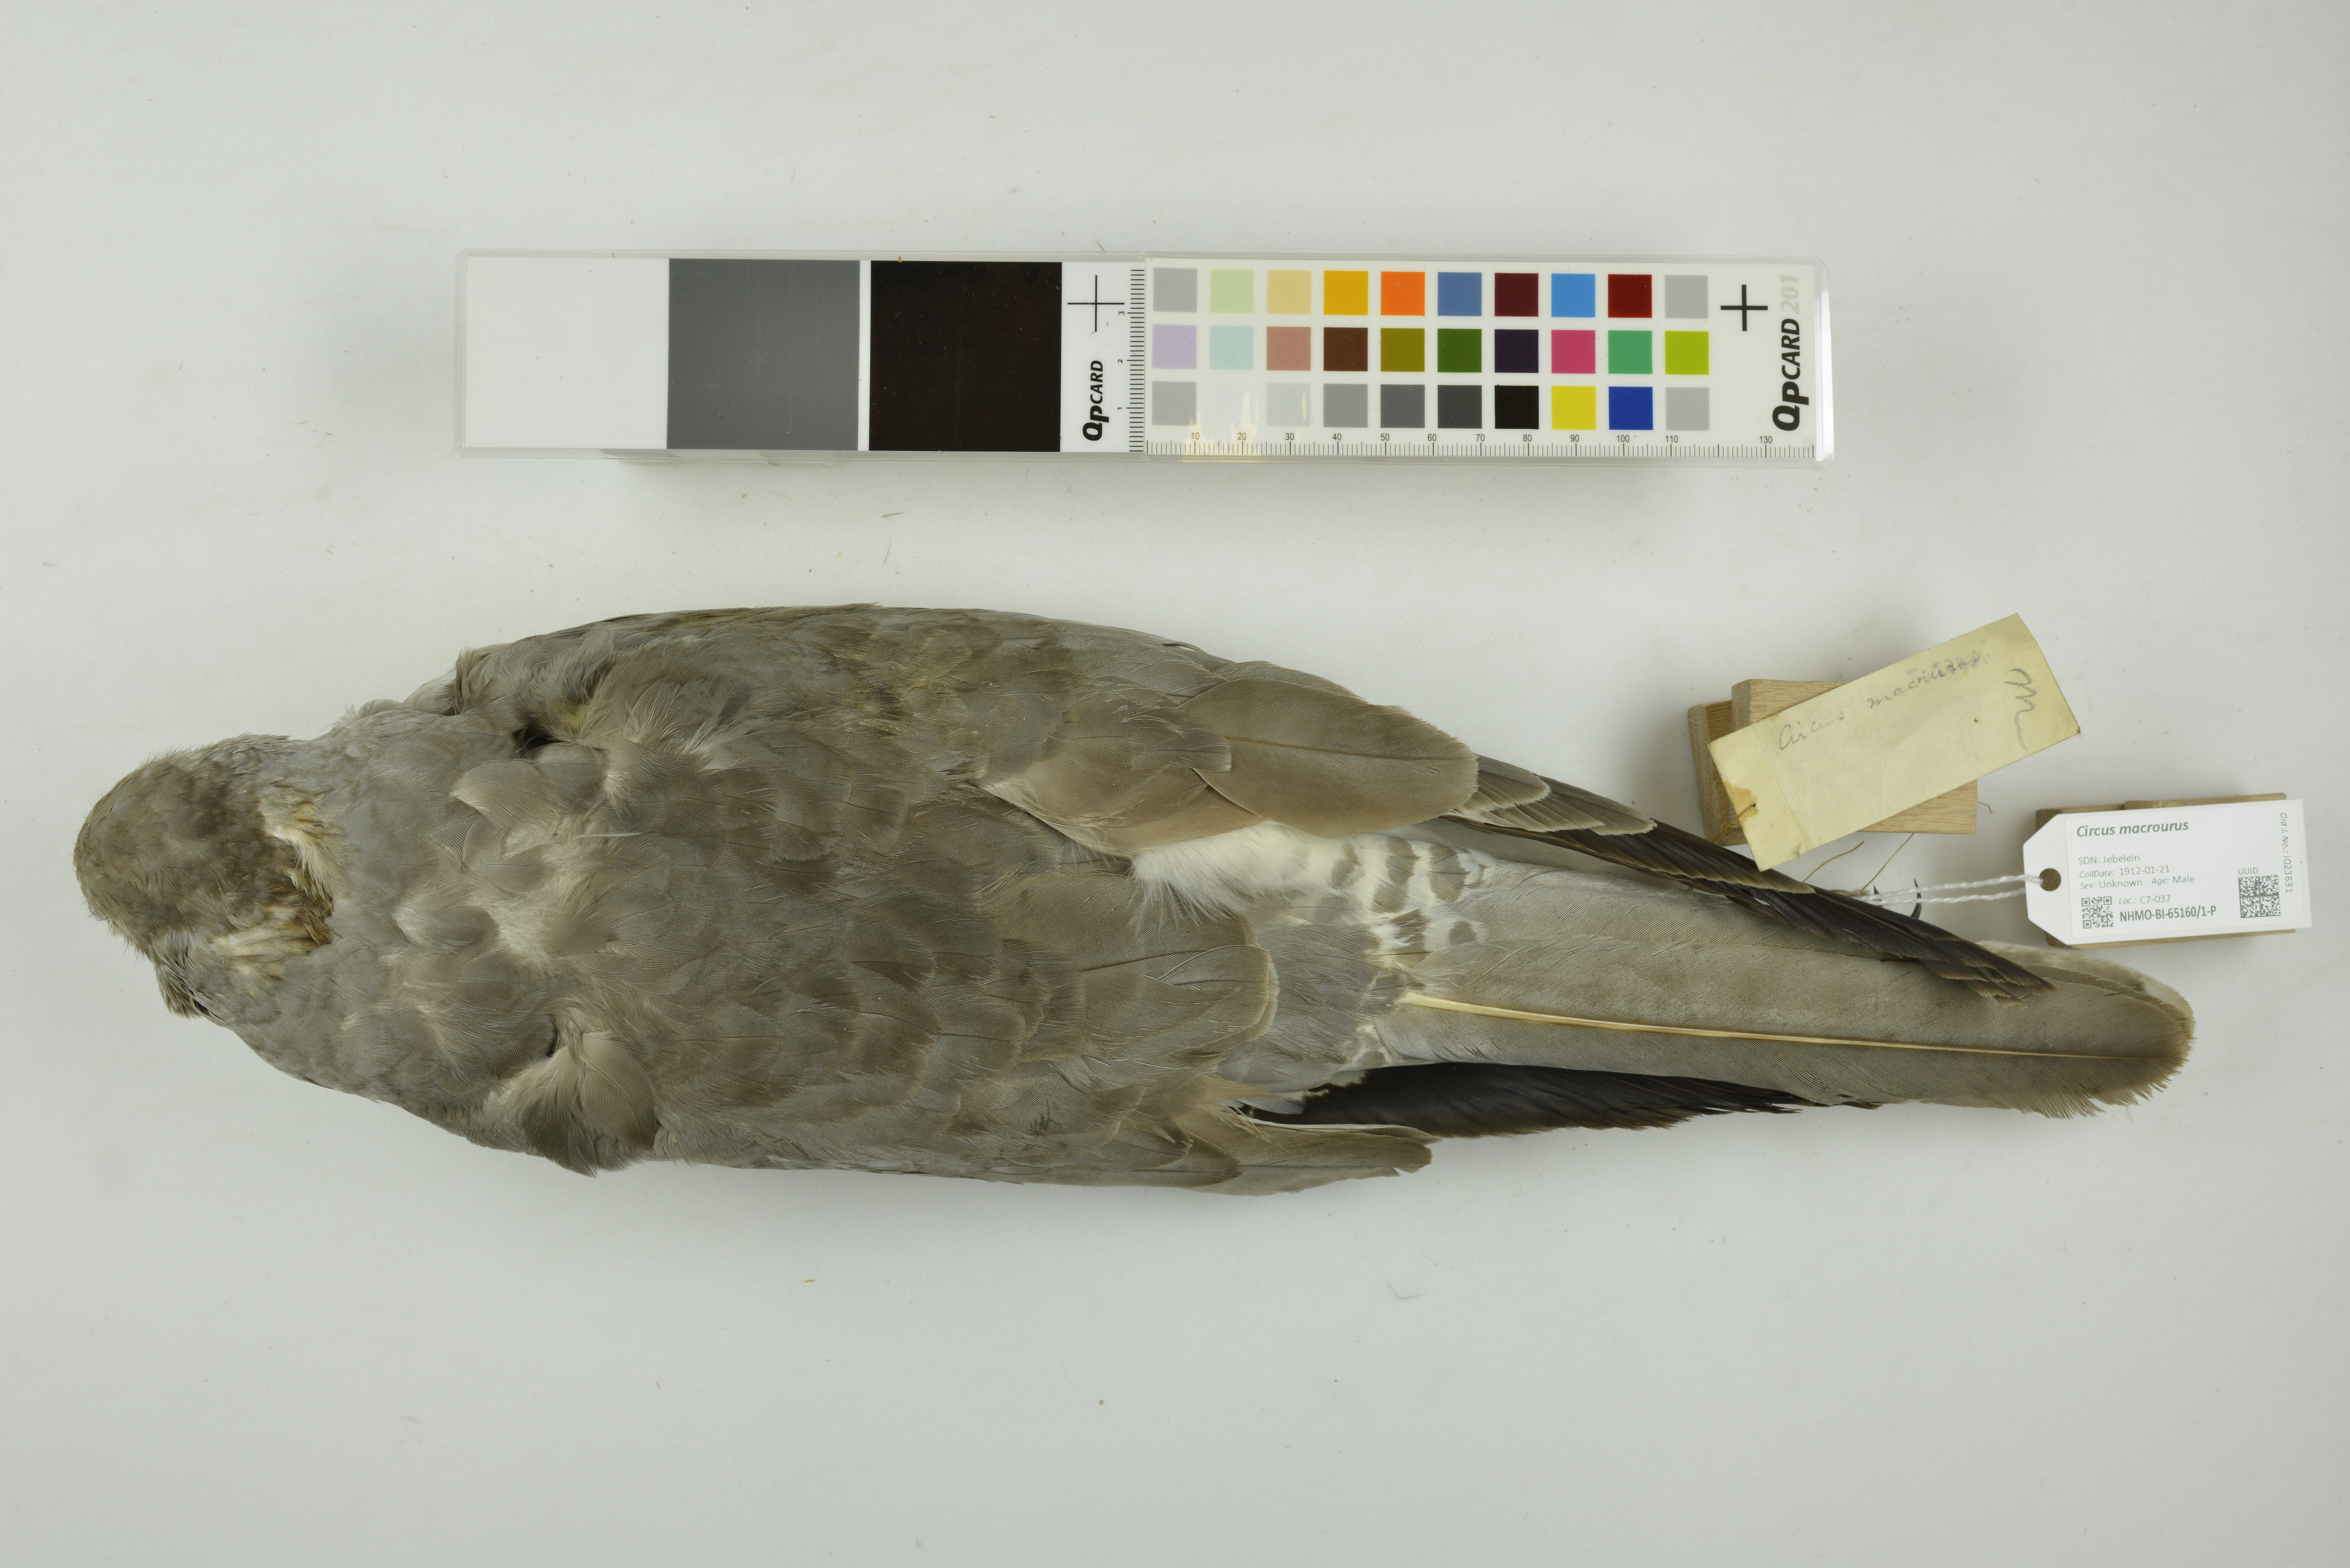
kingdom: Animalia
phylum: Chordata
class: Aves
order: Accipitriformes
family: Accipitridae
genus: Circus
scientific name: Circus macrourus
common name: Pallid harrier
